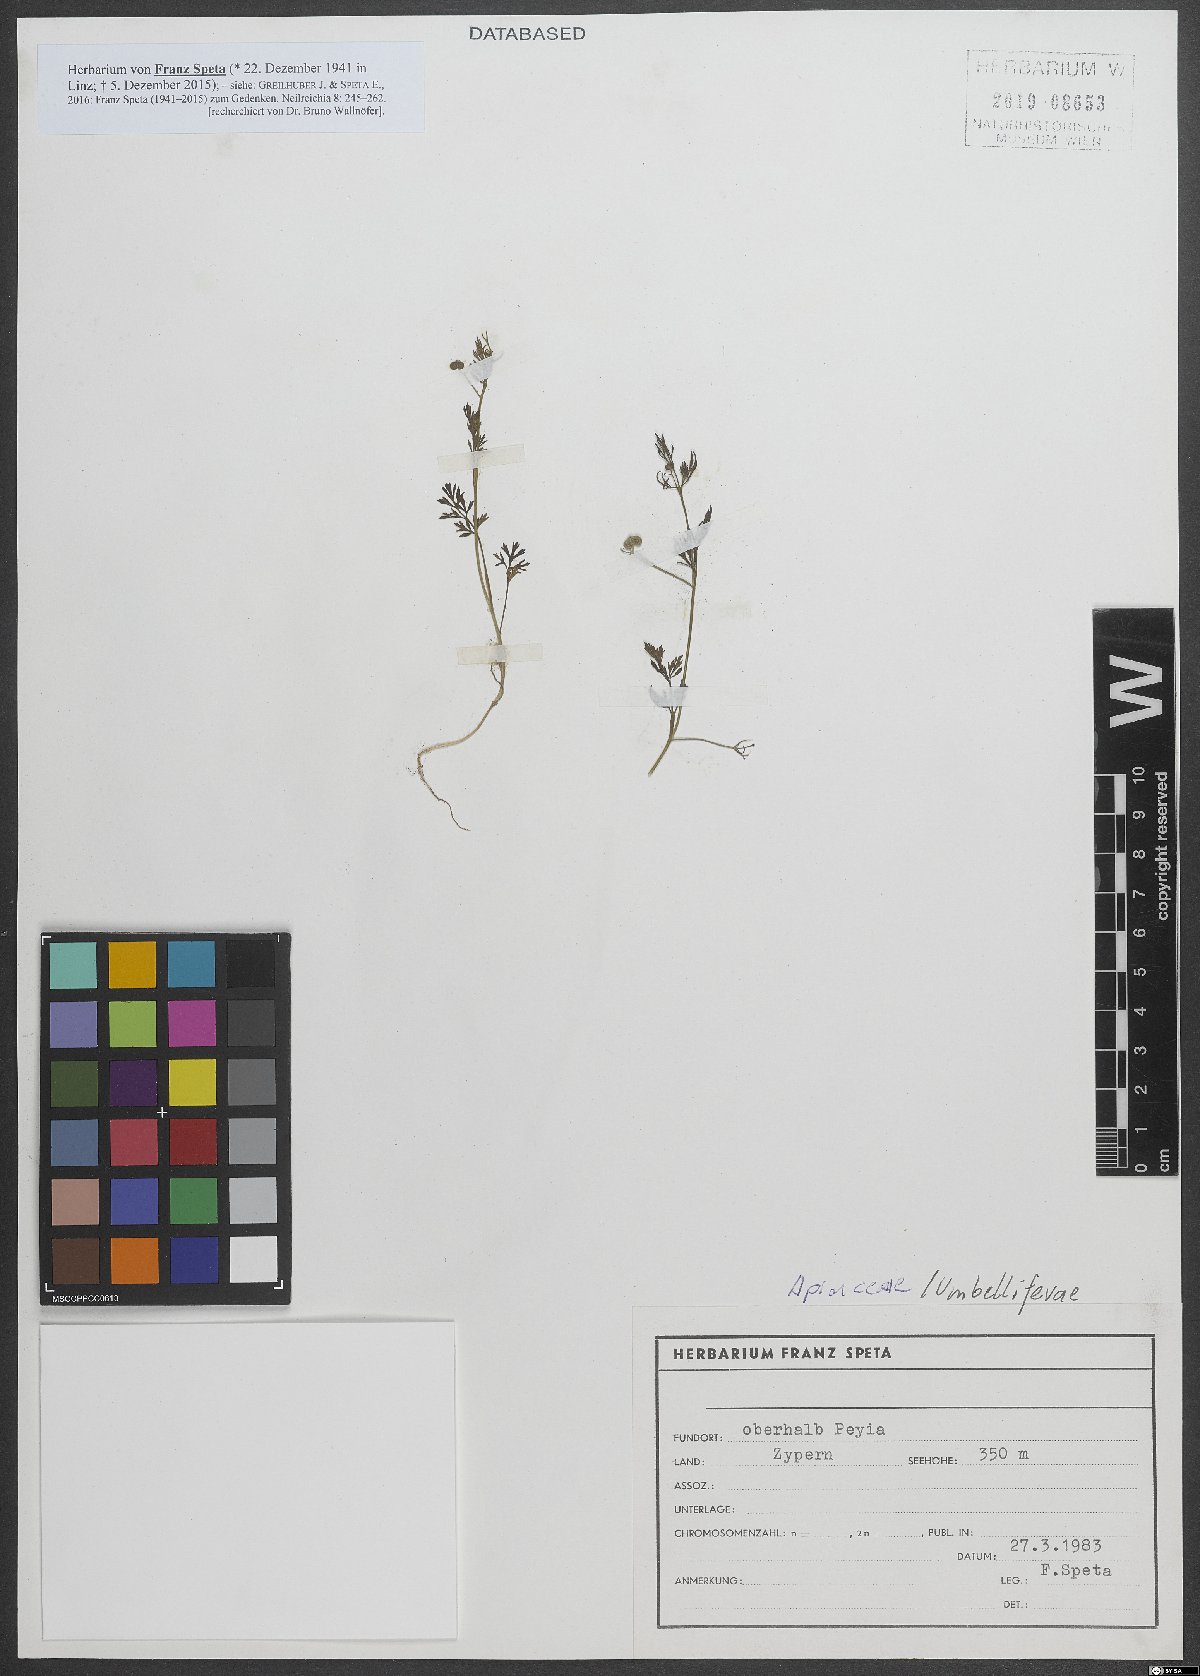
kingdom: Plantae
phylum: Tracheophyta
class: Magnoliopsida
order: Apiales
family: Apiaceae
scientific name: Apiaceae
